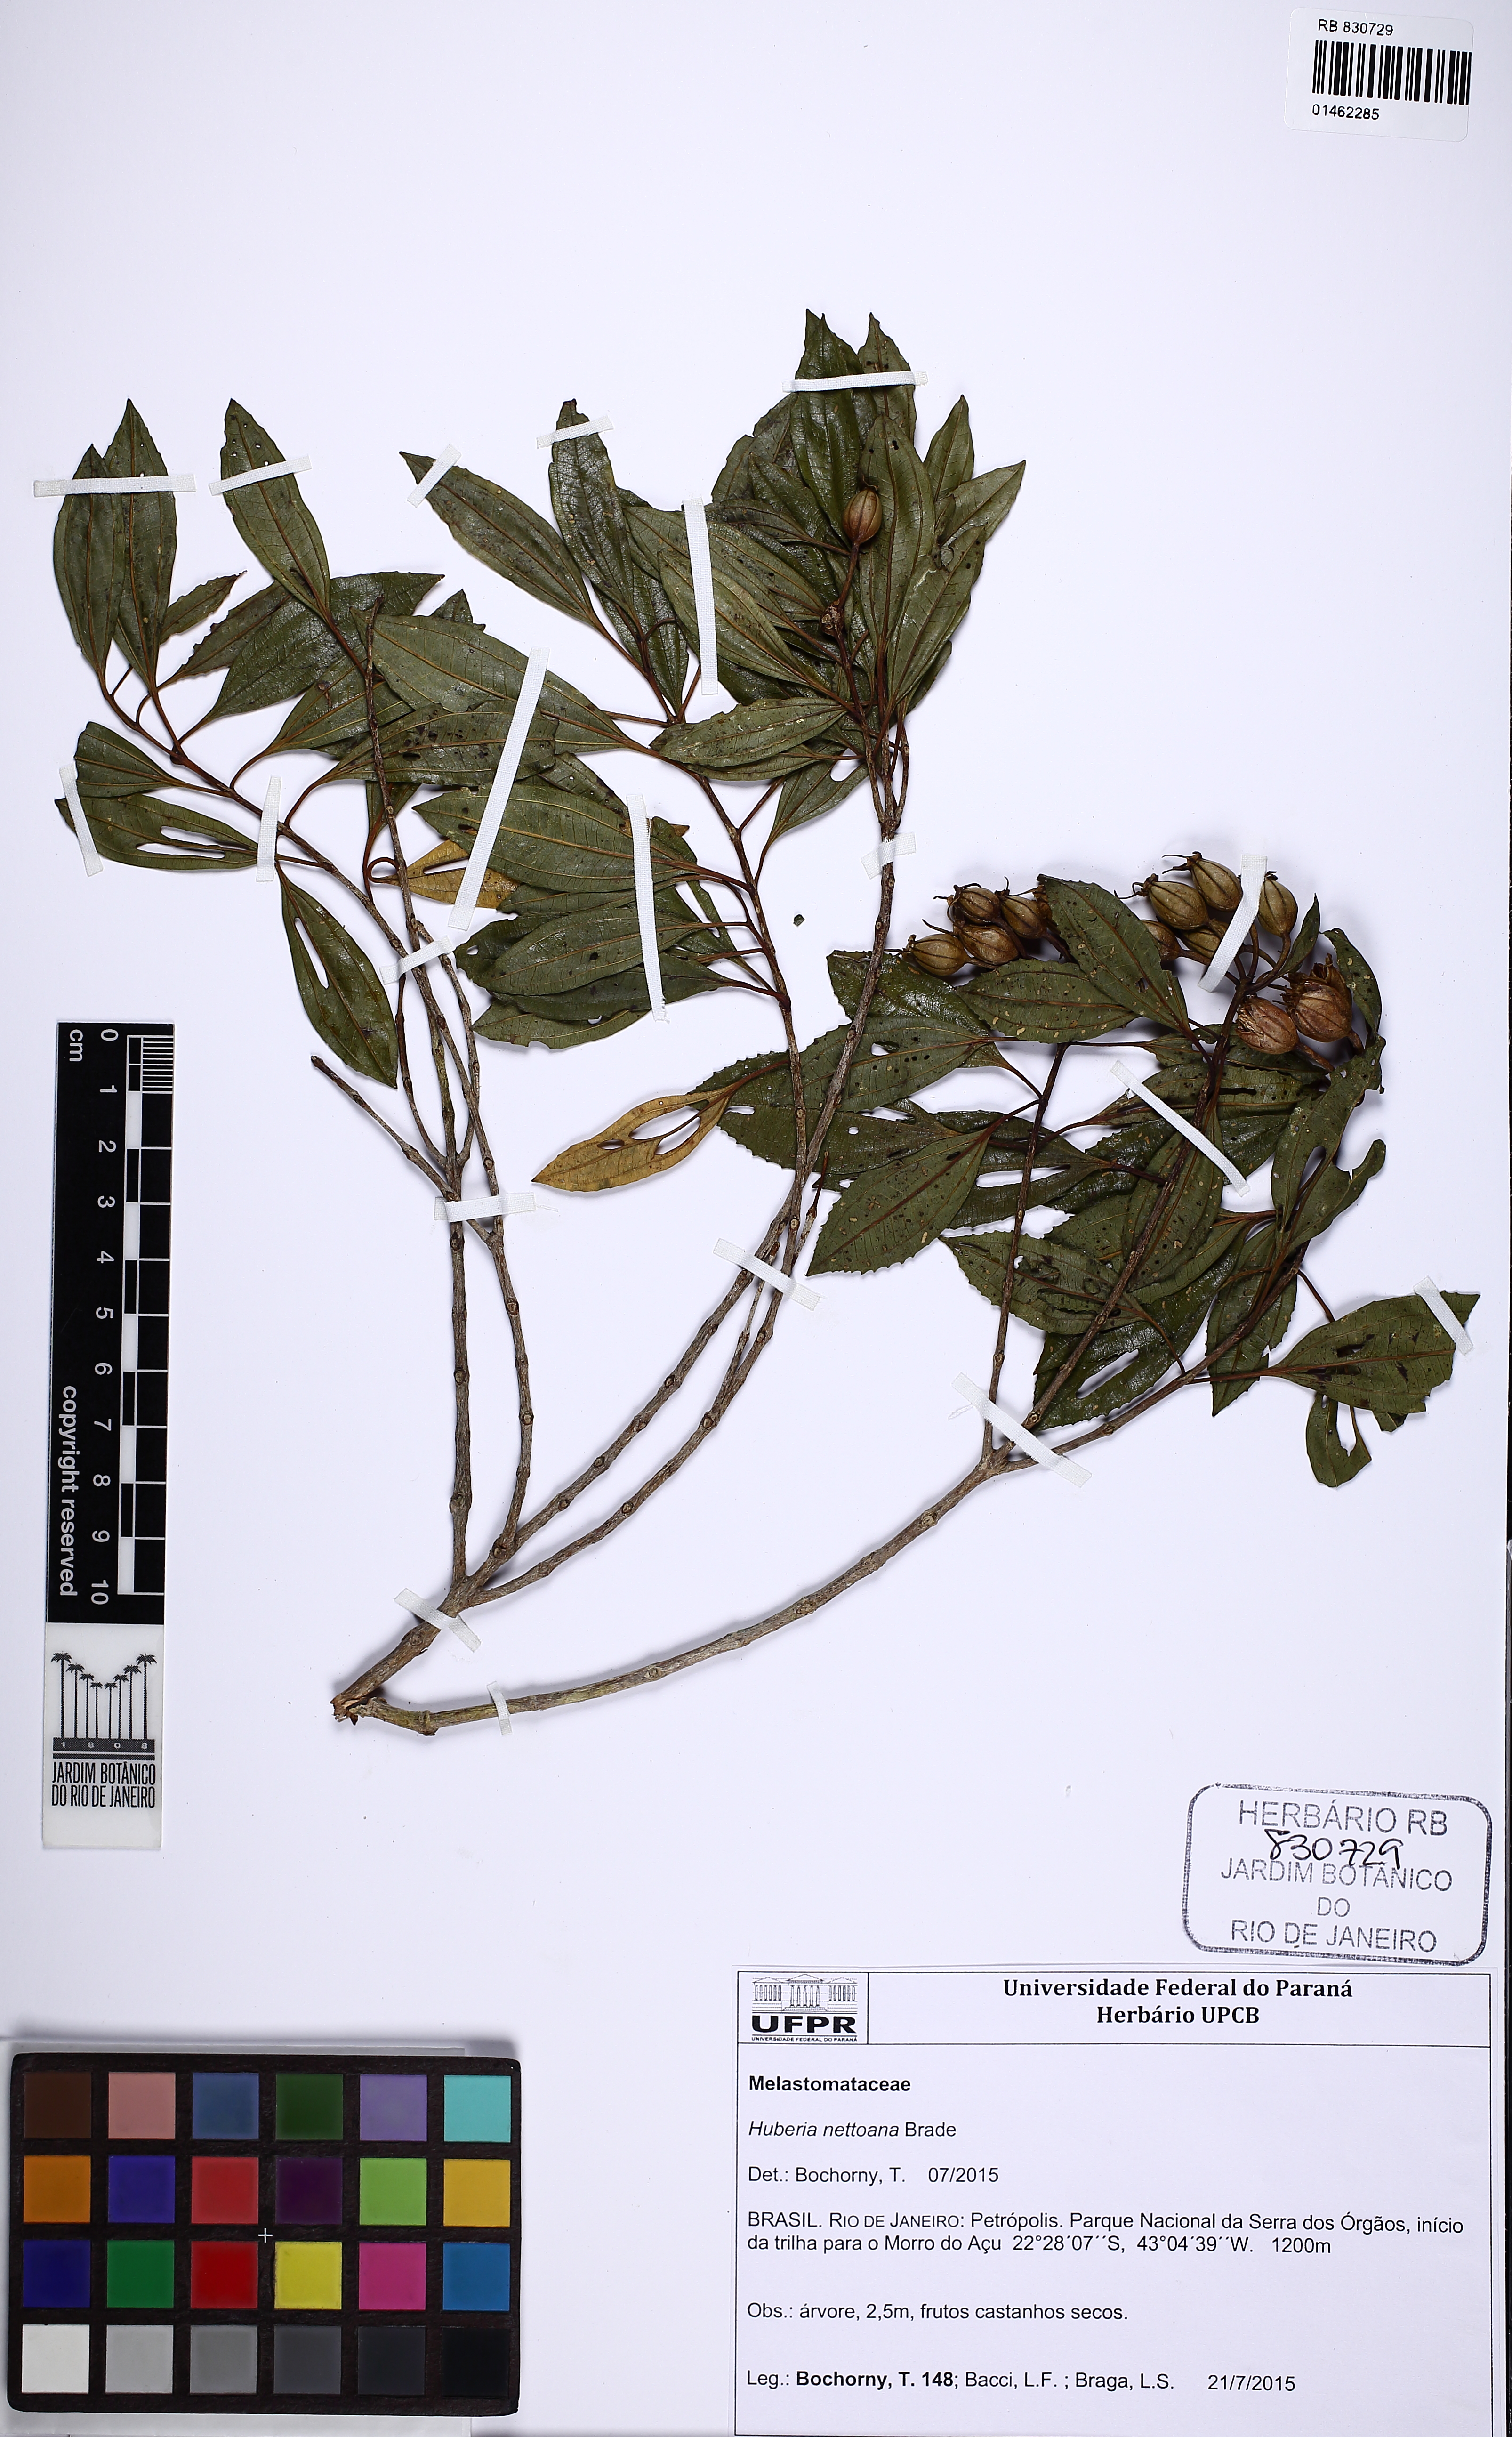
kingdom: Plantae
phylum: Tracheophyta
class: Magnoliopsida
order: Myrtales
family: Melastomataceae
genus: Huberia
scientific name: Huberia nettoana
